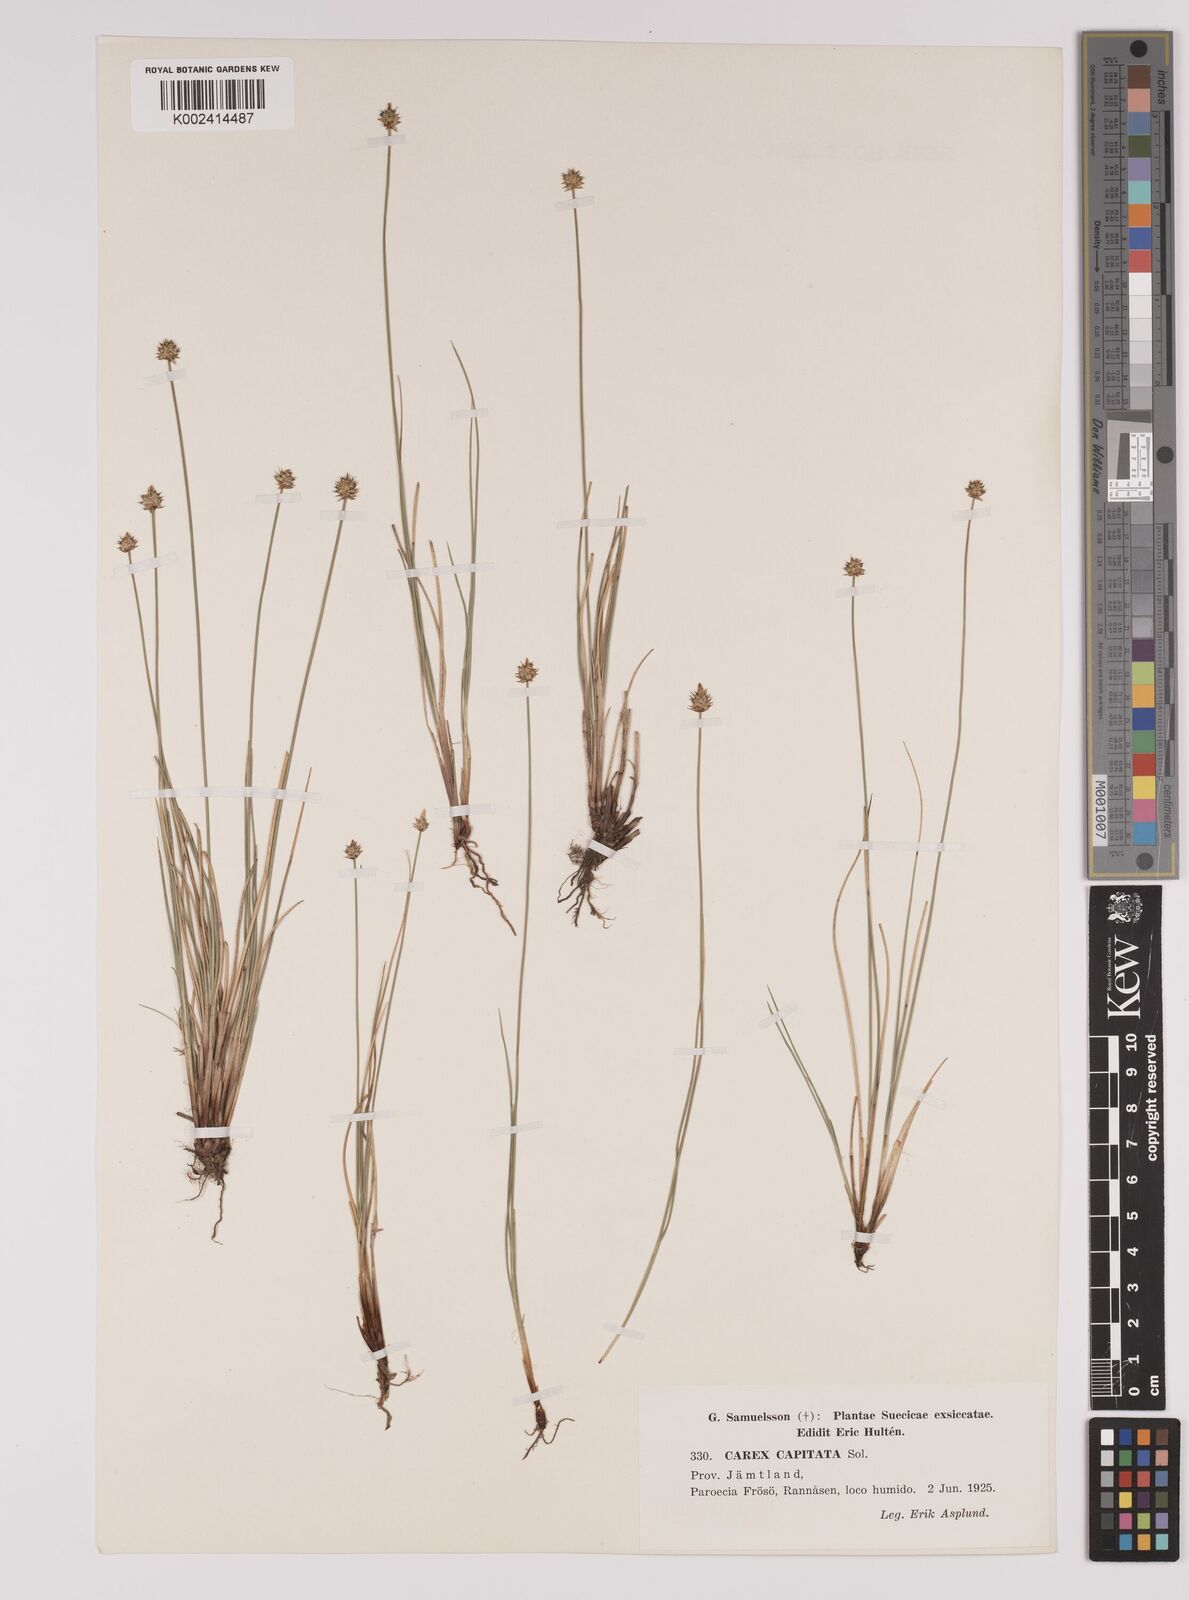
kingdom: Plantae
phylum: Tracheophyta
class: Liliopsida
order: Poales
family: Cyperaceae
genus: Carex
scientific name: Carex capitata
